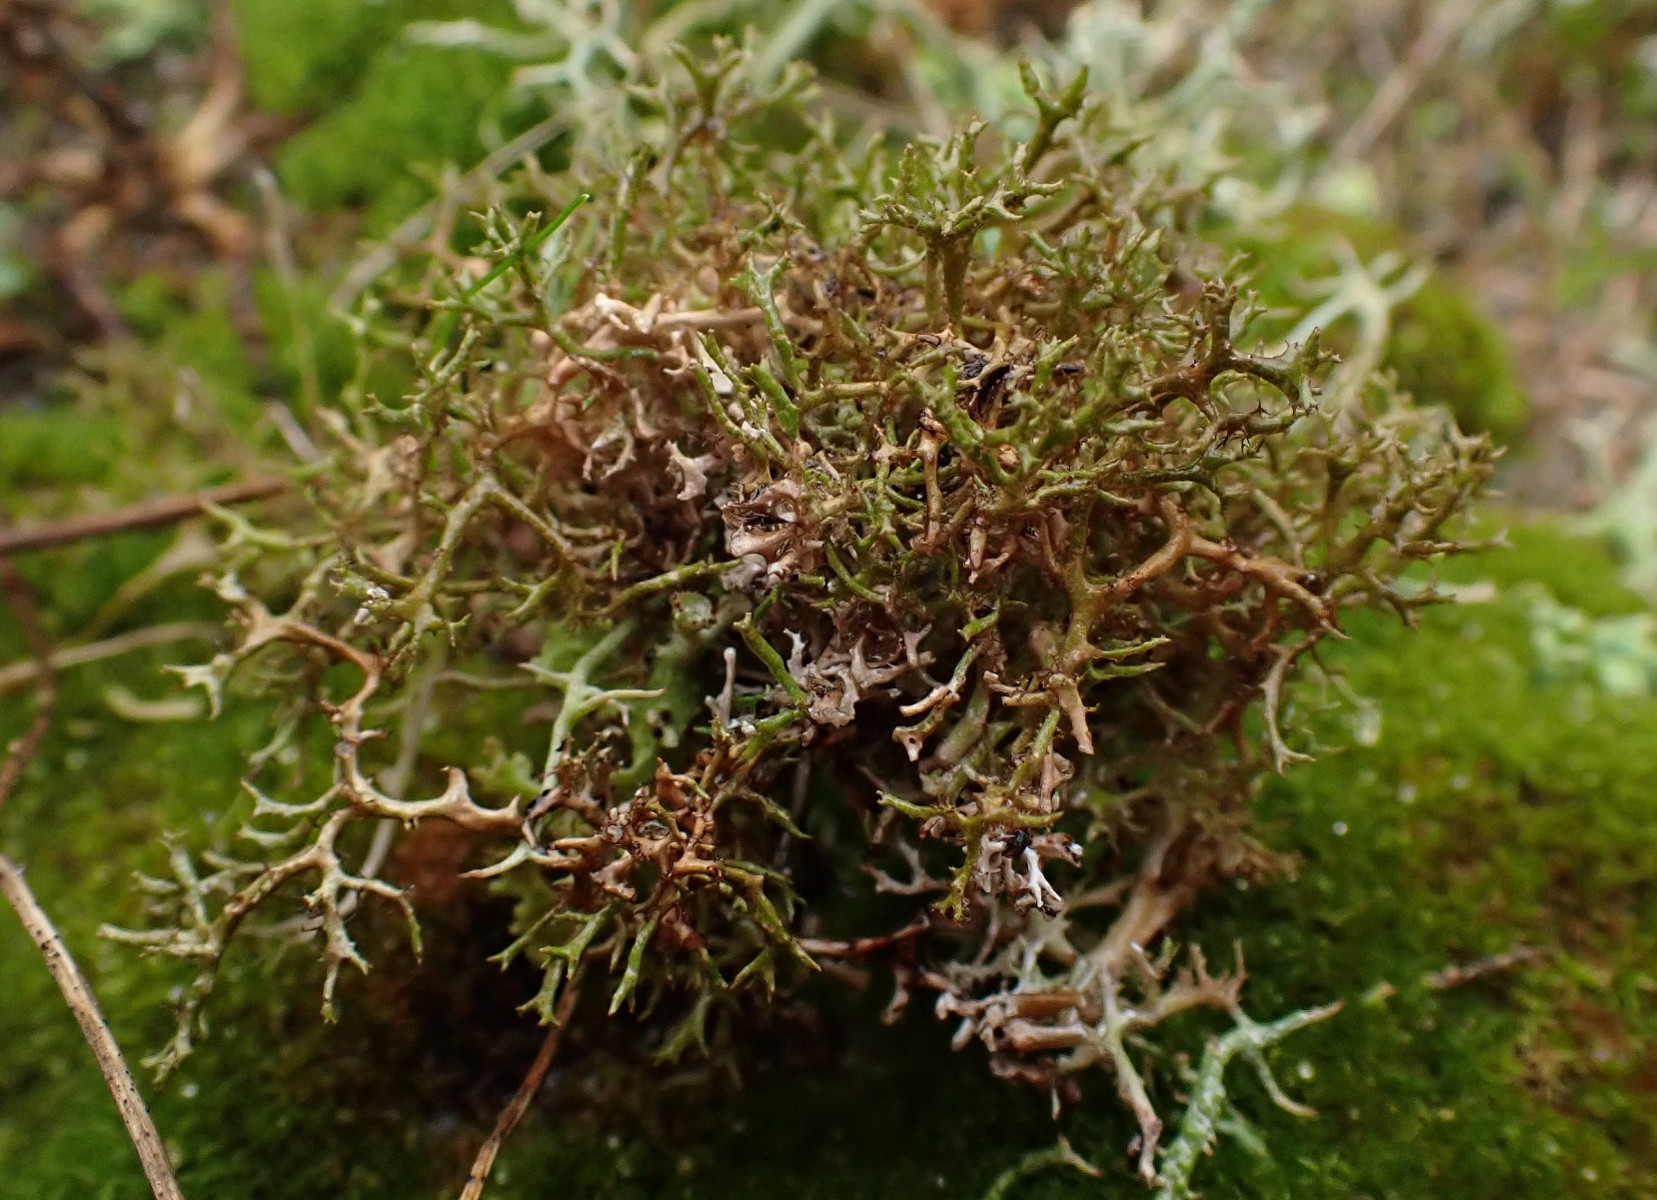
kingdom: Fungi
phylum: Ascomycota
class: Lecanoromycetes
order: Lecanorales
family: Parmeliaceae
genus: Cetraria
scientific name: Cetraria muricata
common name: tue-tjørnelav
